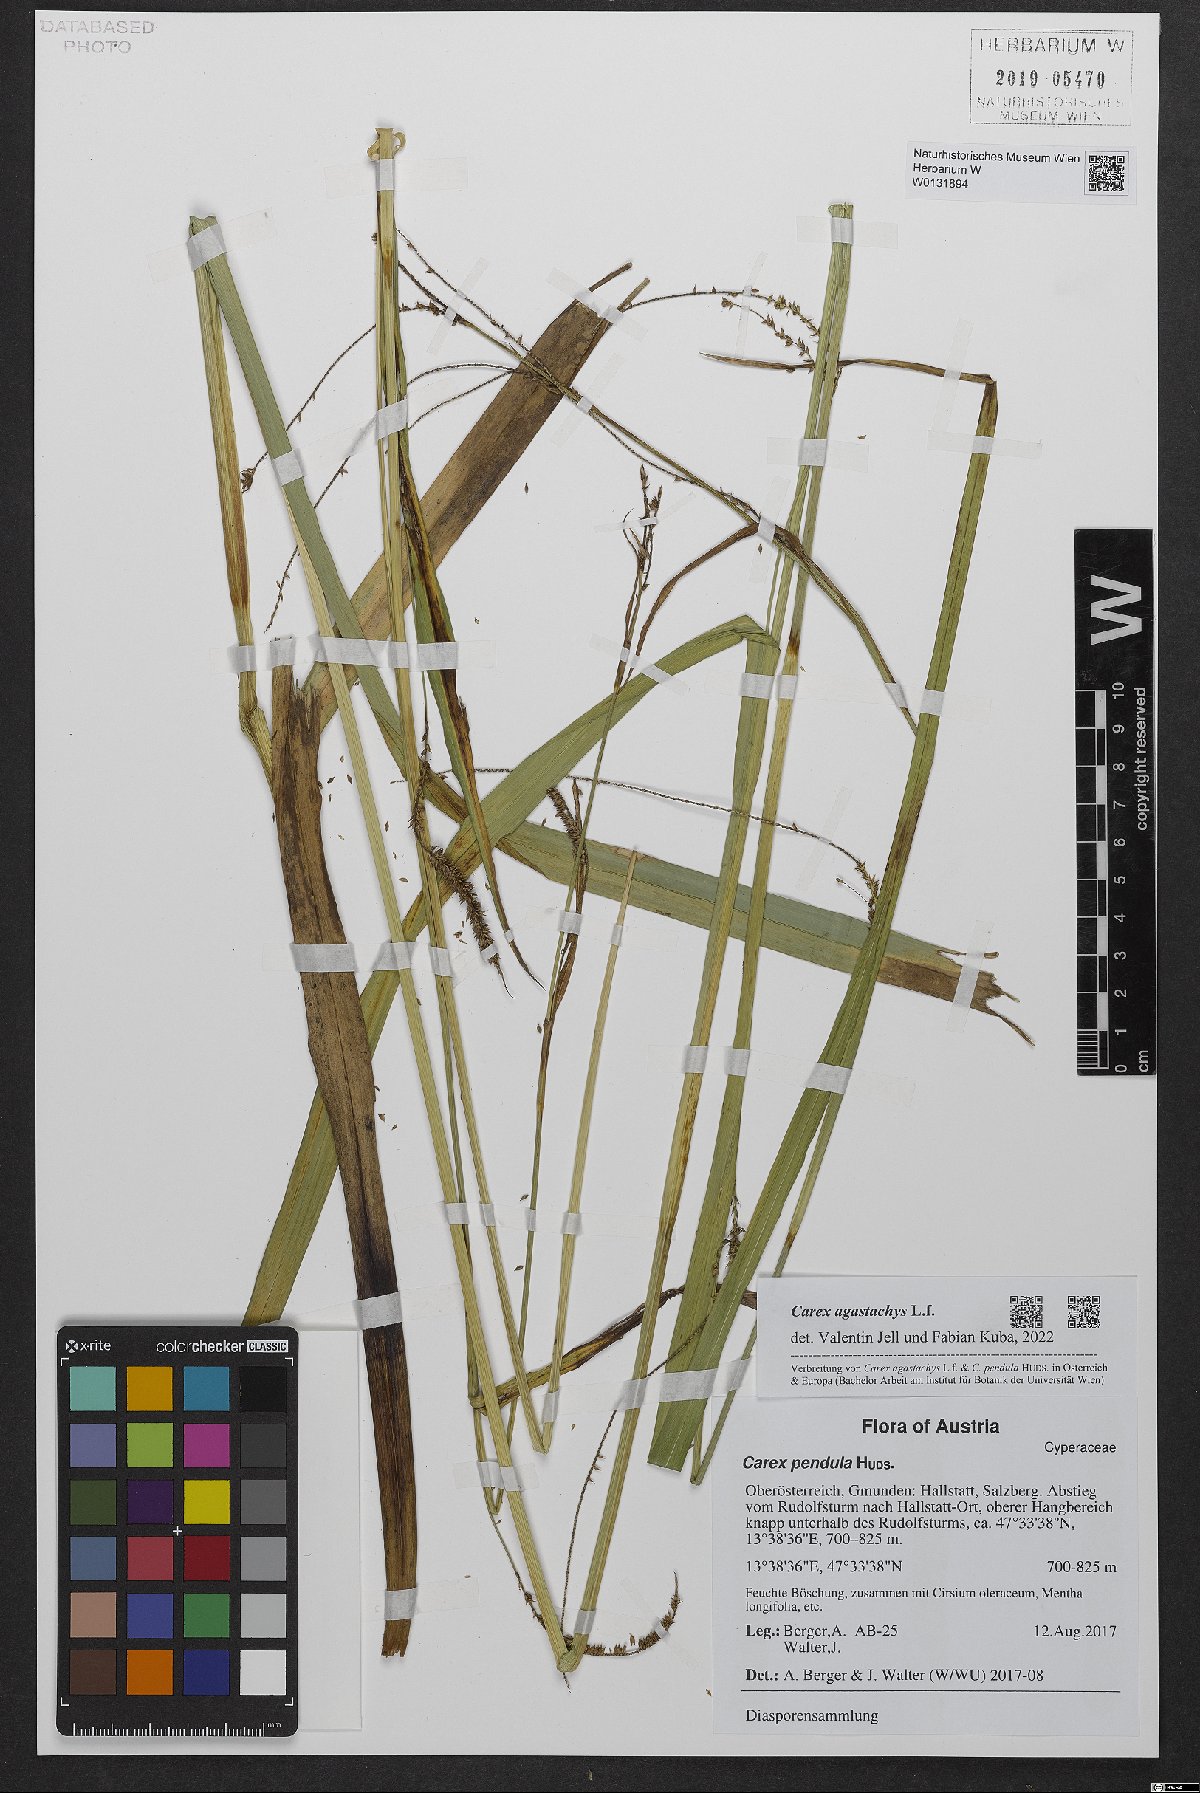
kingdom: Plantae
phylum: Tracheophyta
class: Liliopsida
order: Poales
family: Cyperaceae
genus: Carex
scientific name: Carex agastachys
